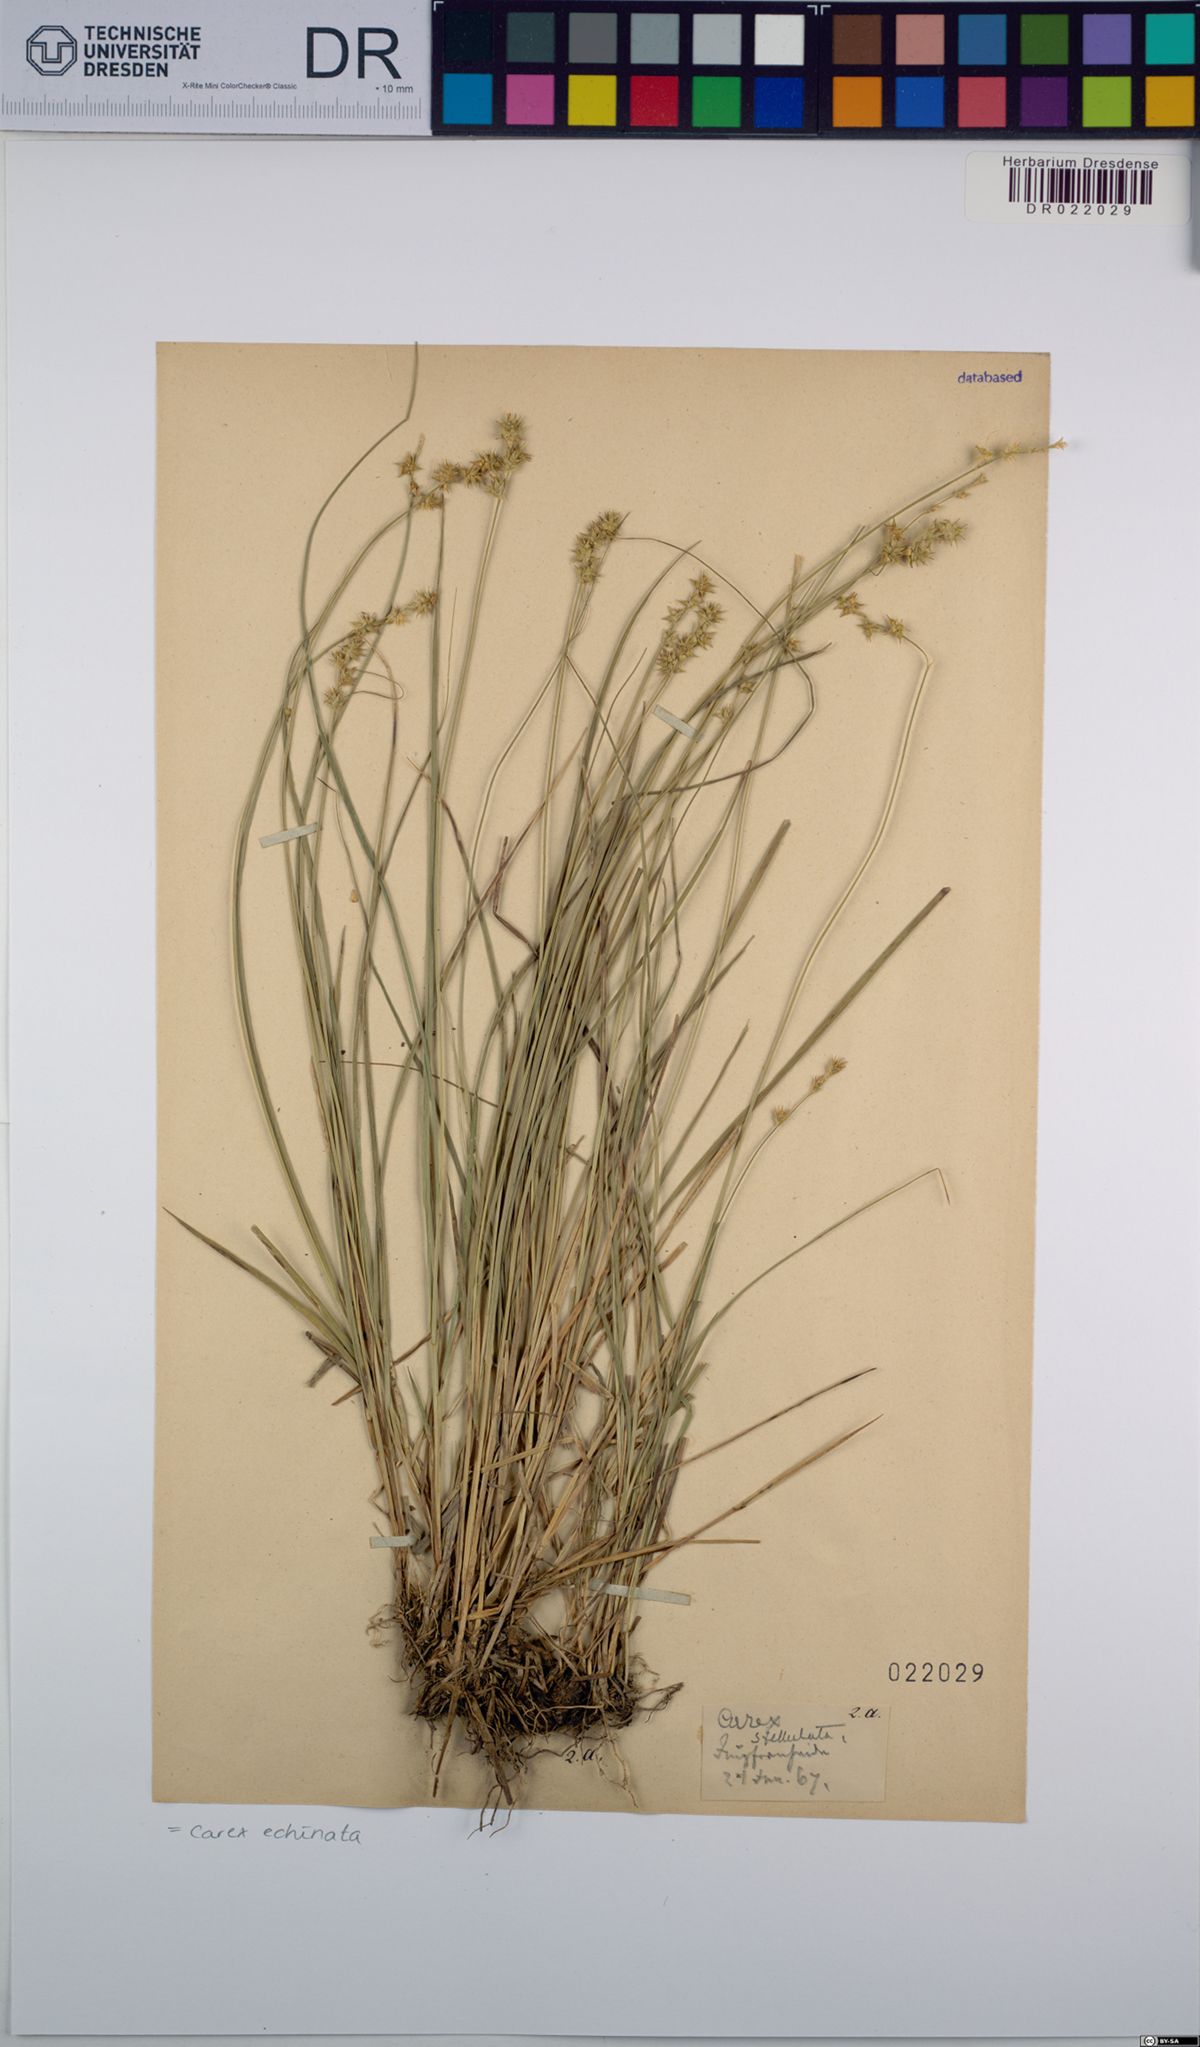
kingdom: Plantae
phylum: Tracheophyta
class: Liliopsida
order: Poales
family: Cyperaceae
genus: Carex
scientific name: Carex echinata
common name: Star sedge
